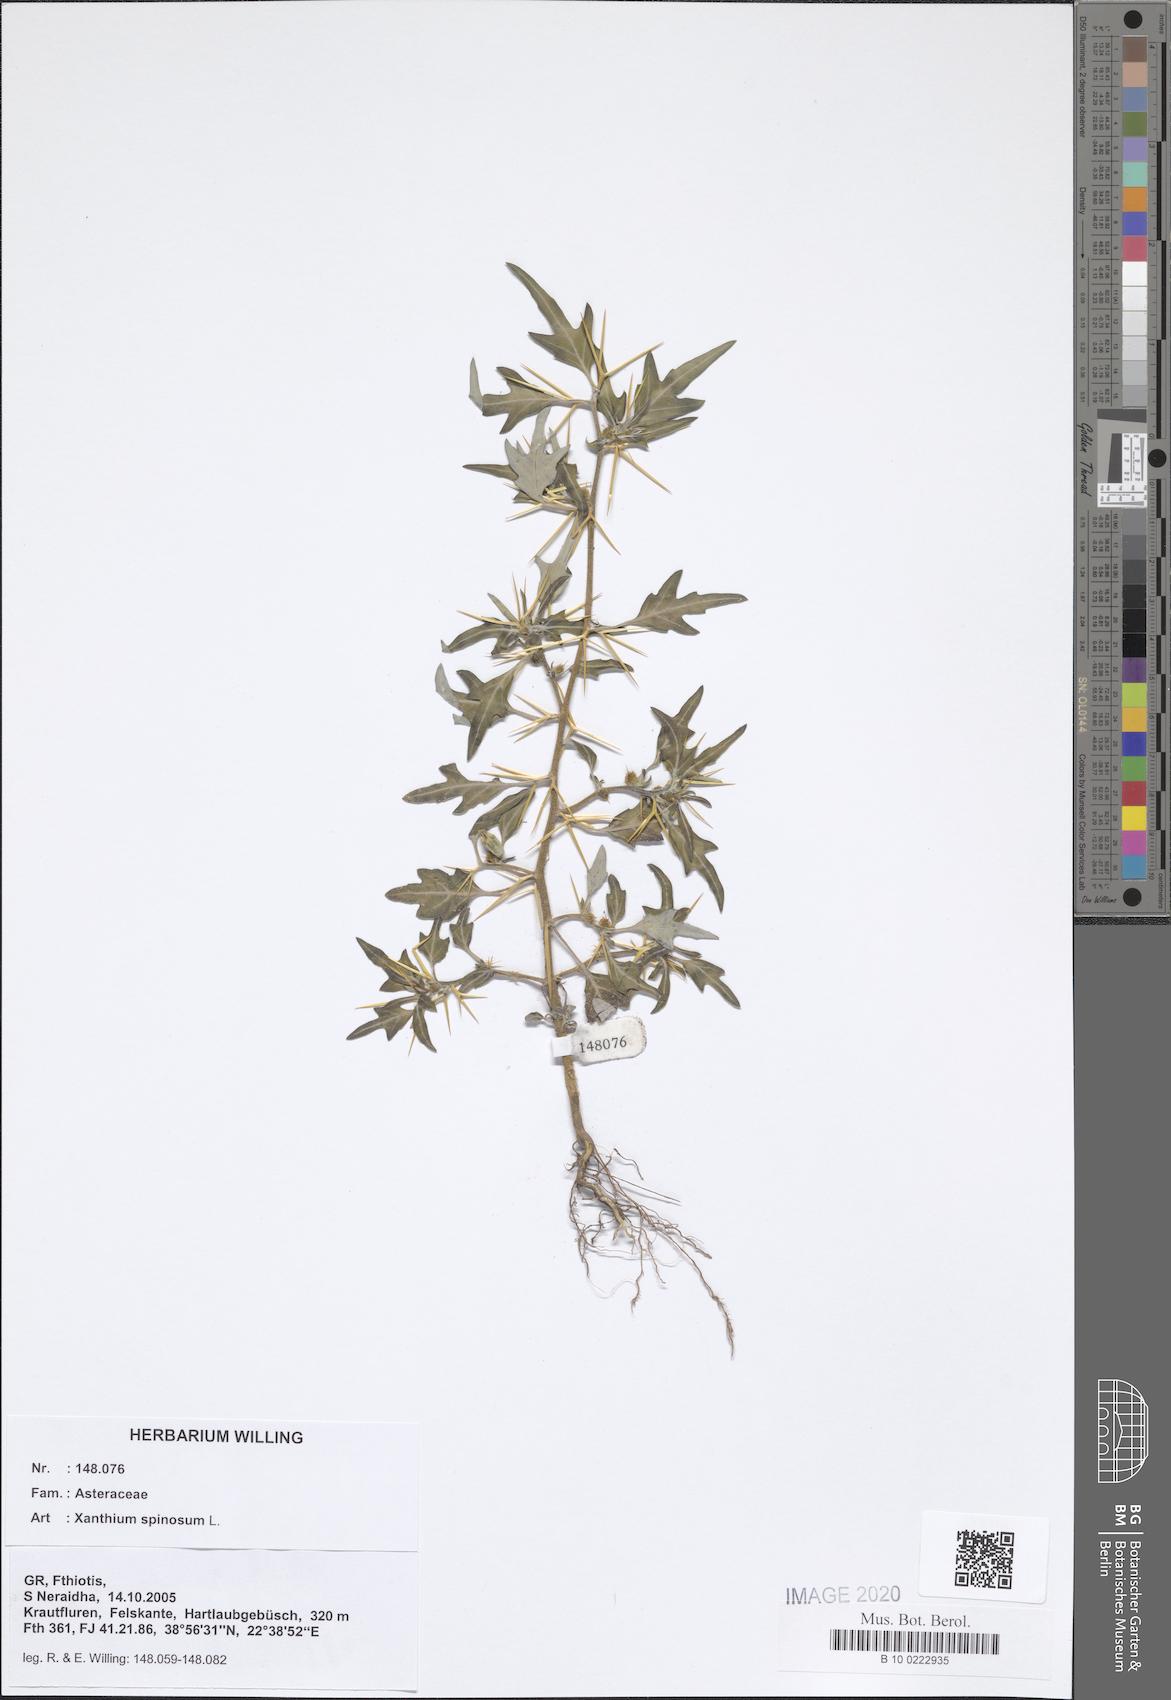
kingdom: Plantae
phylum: Tracheophyta
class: Magnoliopsida
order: Asterales
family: Asteraceae
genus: Xanthium
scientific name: Xanthium spinosum
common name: Spiny cocklebur
